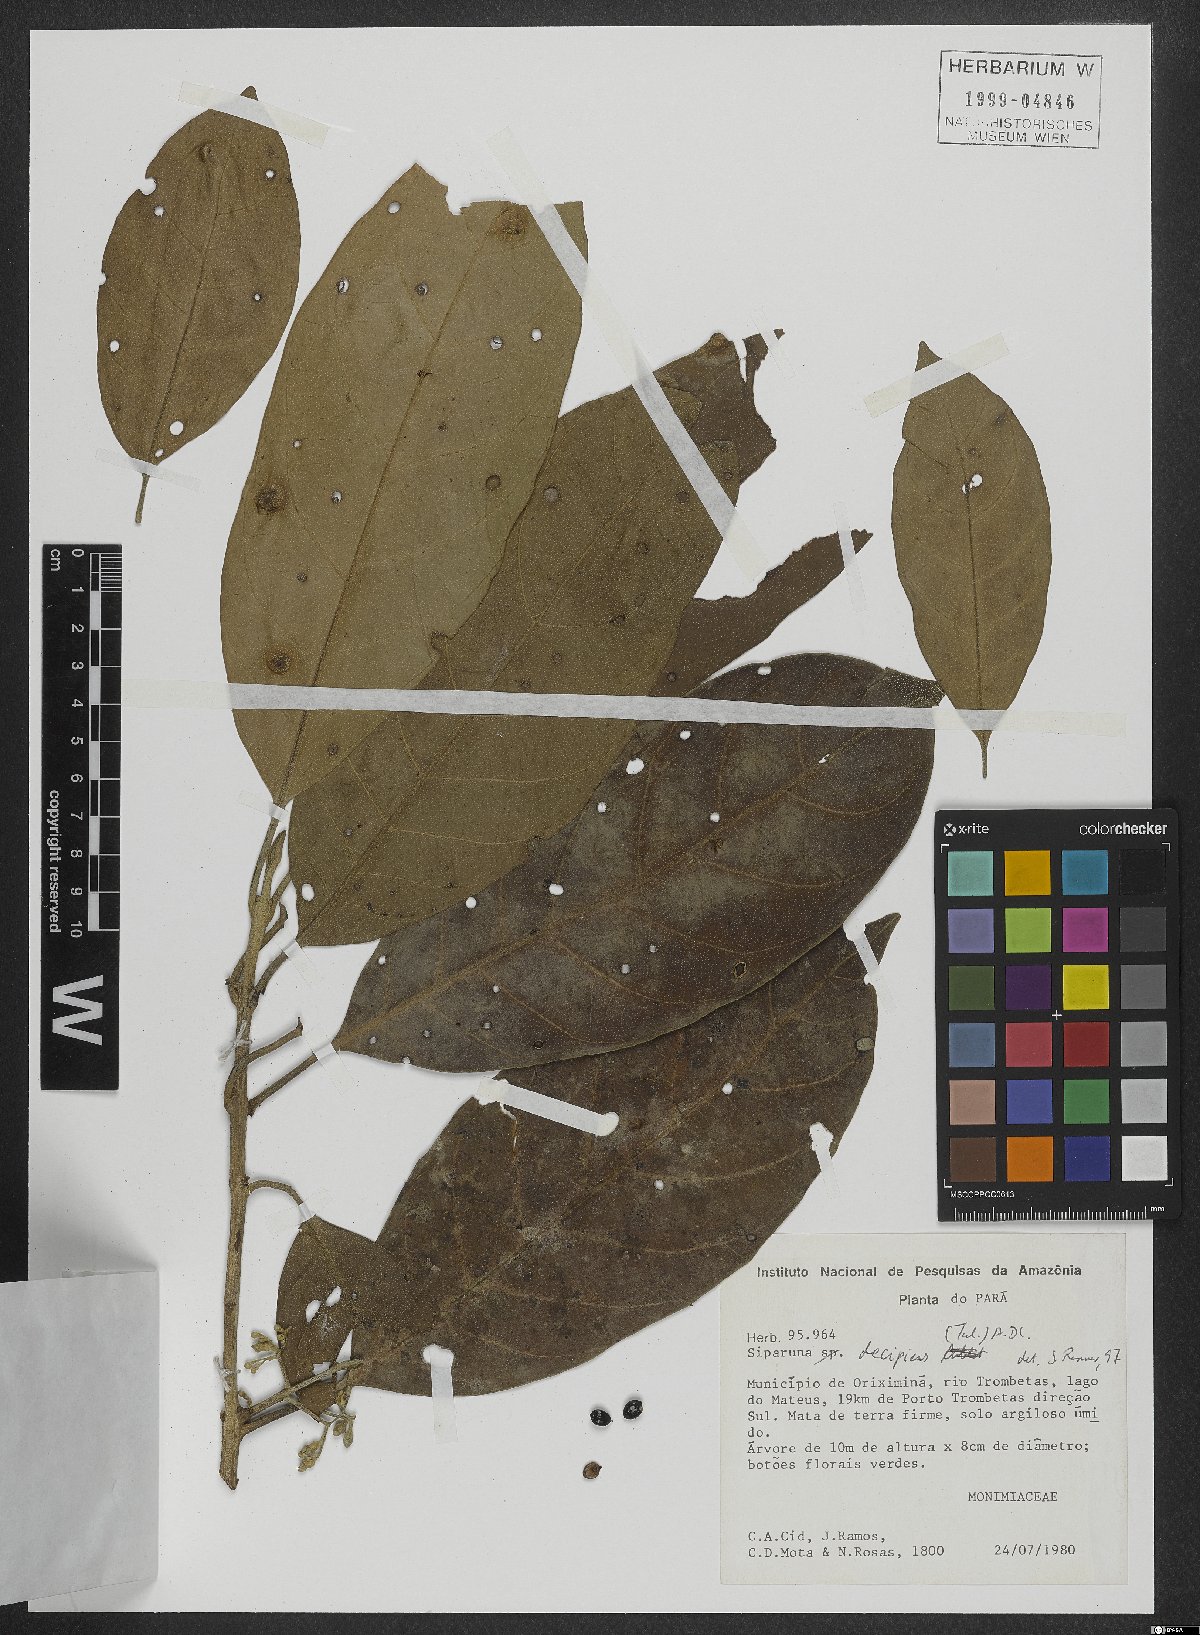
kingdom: Plantae
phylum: Tracheophyta
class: Magnoliopsida
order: Laurales
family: Siparunaceae
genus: Siparuna
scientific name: Siparuna decipiens
